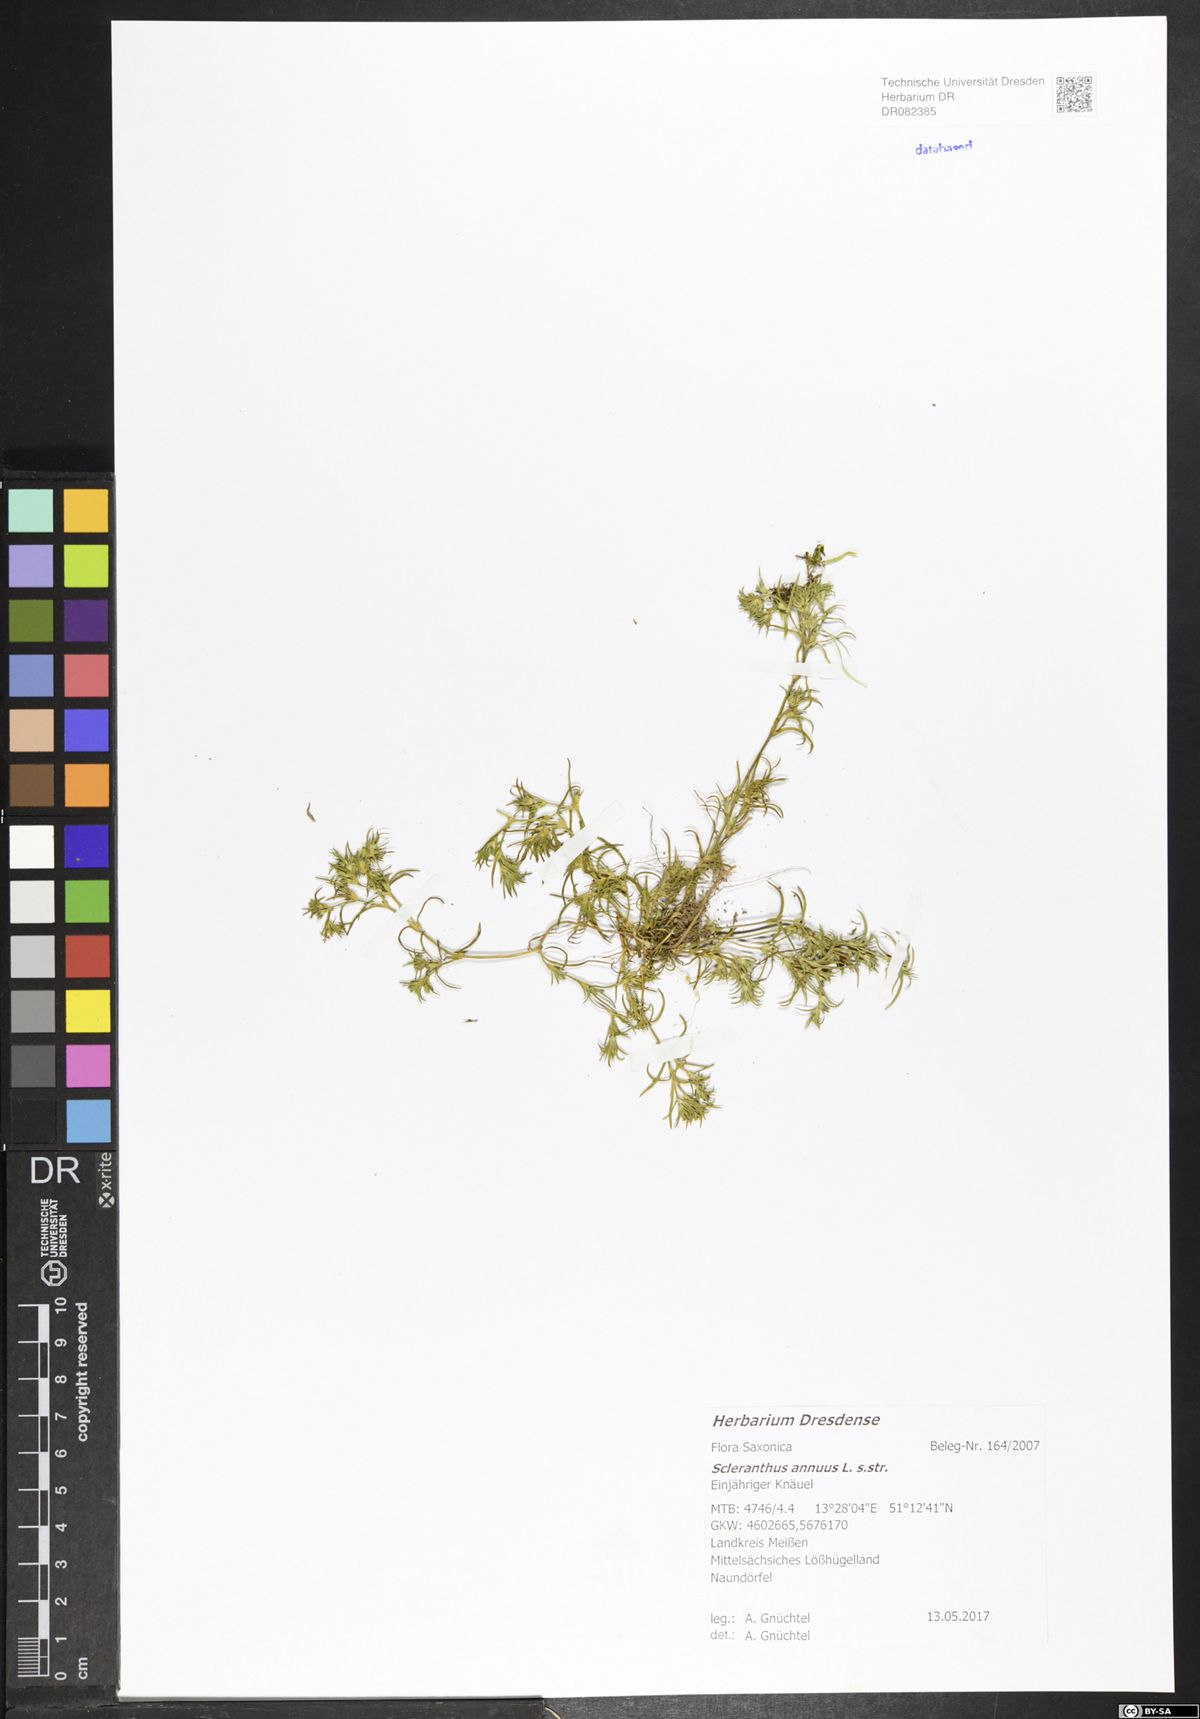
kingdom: Plantae
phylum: Tracheophyta
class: Magnoliopsida
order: Caryophyllales
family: Caryophyllaceae
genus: Scleranthus
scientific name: Scleranthus annuus
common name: Annual knawel
